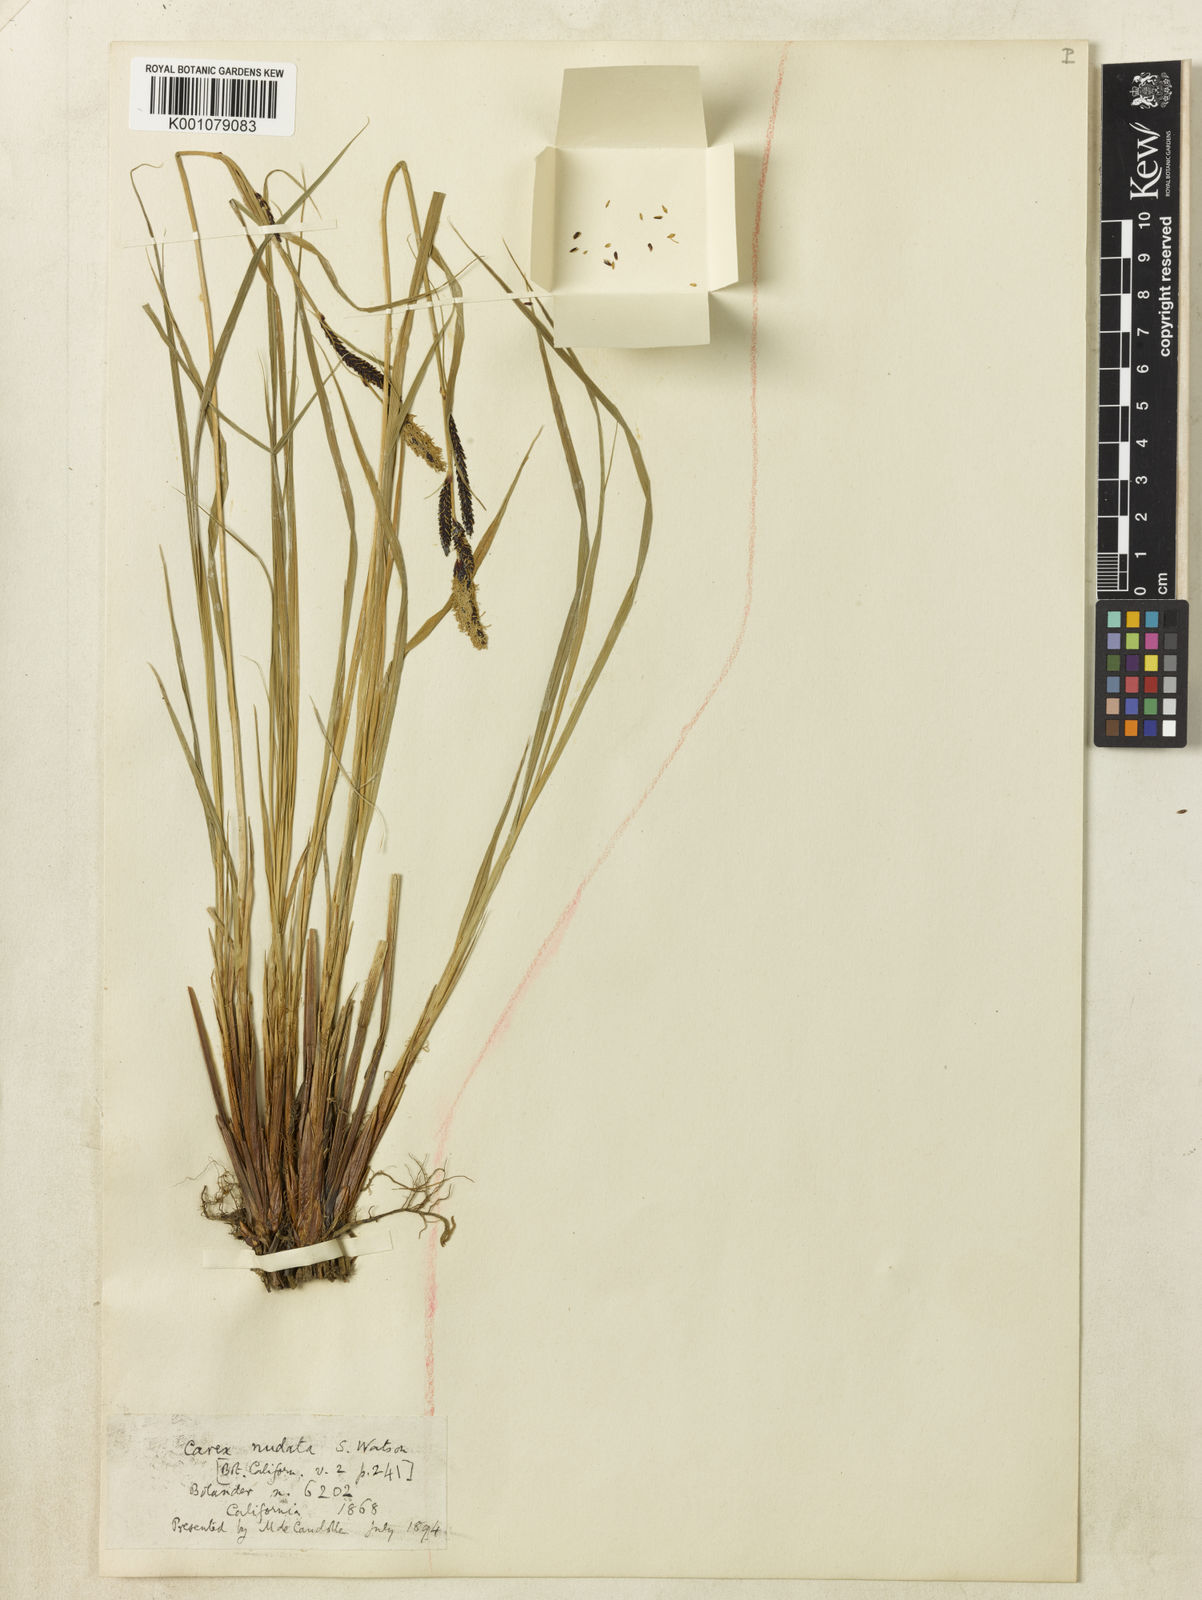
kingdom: Plantae
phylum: Tracheophyta
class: Liliopsida
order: Poales
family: Cyperaceae
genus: Carex
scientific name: Carex
